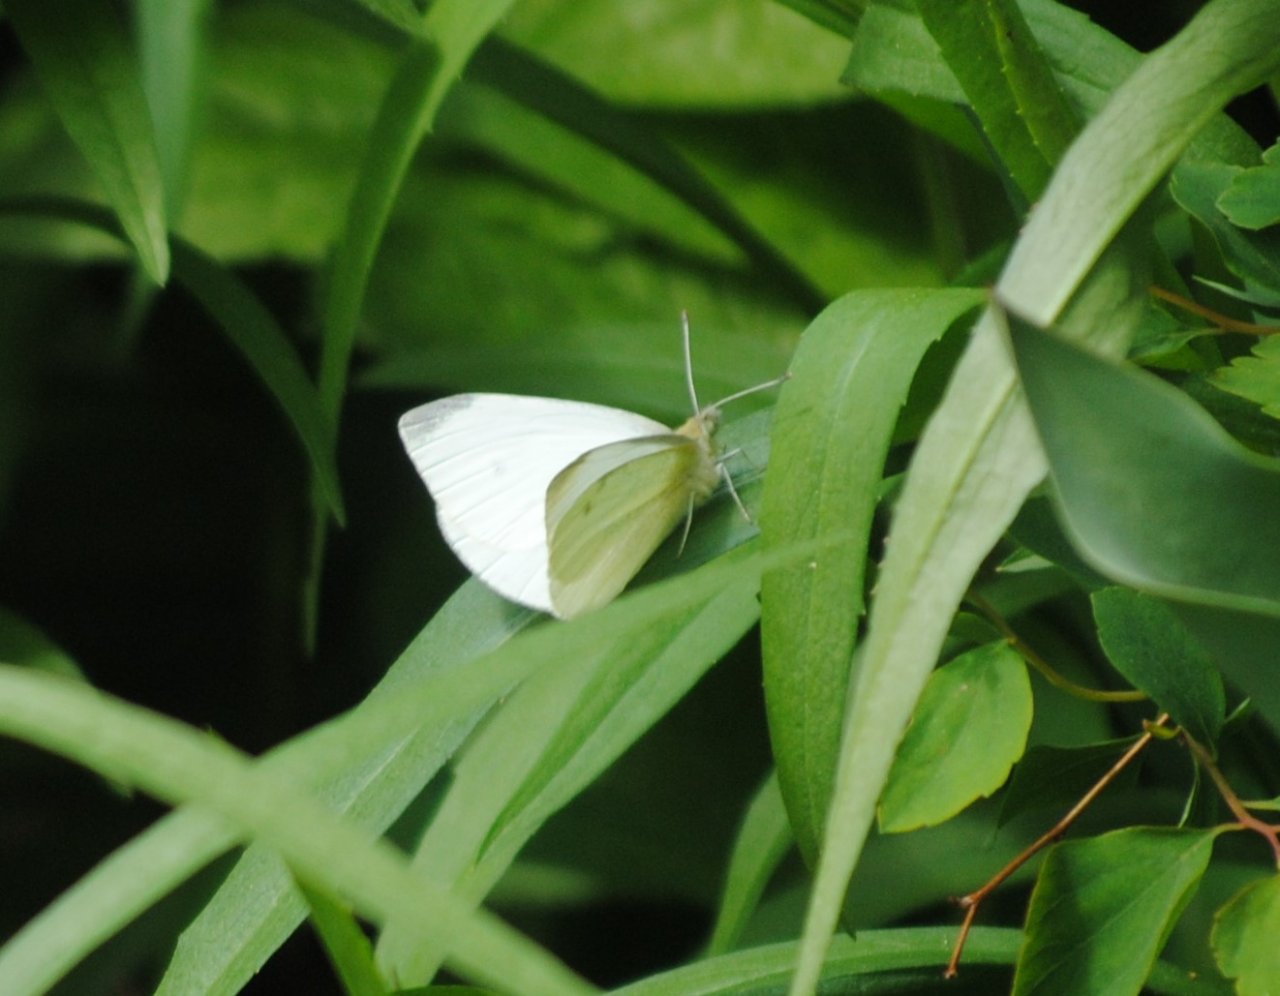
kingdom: Animalia
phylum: Arthropoda
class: Insecta
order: Lepidoptera
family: Pieridae
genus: Pieris
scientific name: Pieris rapae
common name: Cabbage White
